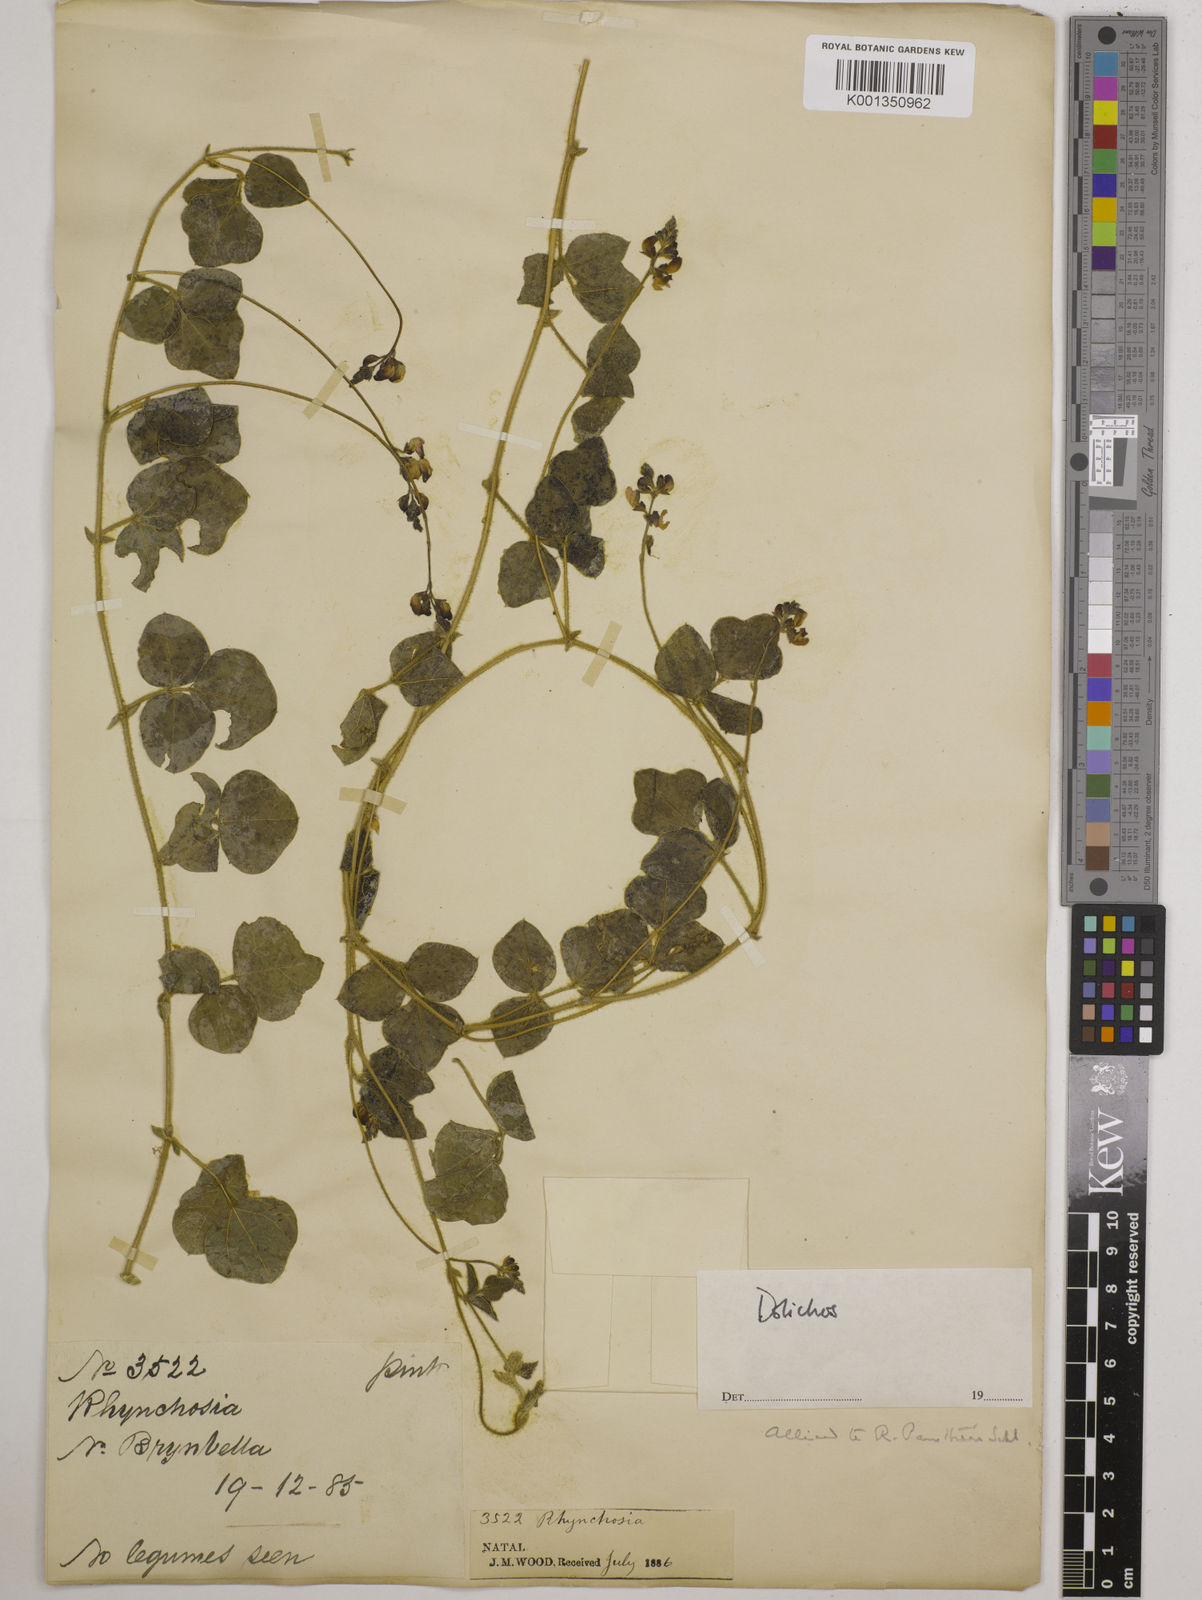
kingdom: Plantae
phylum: Tracheophyta
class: Magnoliopsida
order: Fabales
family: Fabaceae
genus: Dolichos
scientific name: Dolichos
